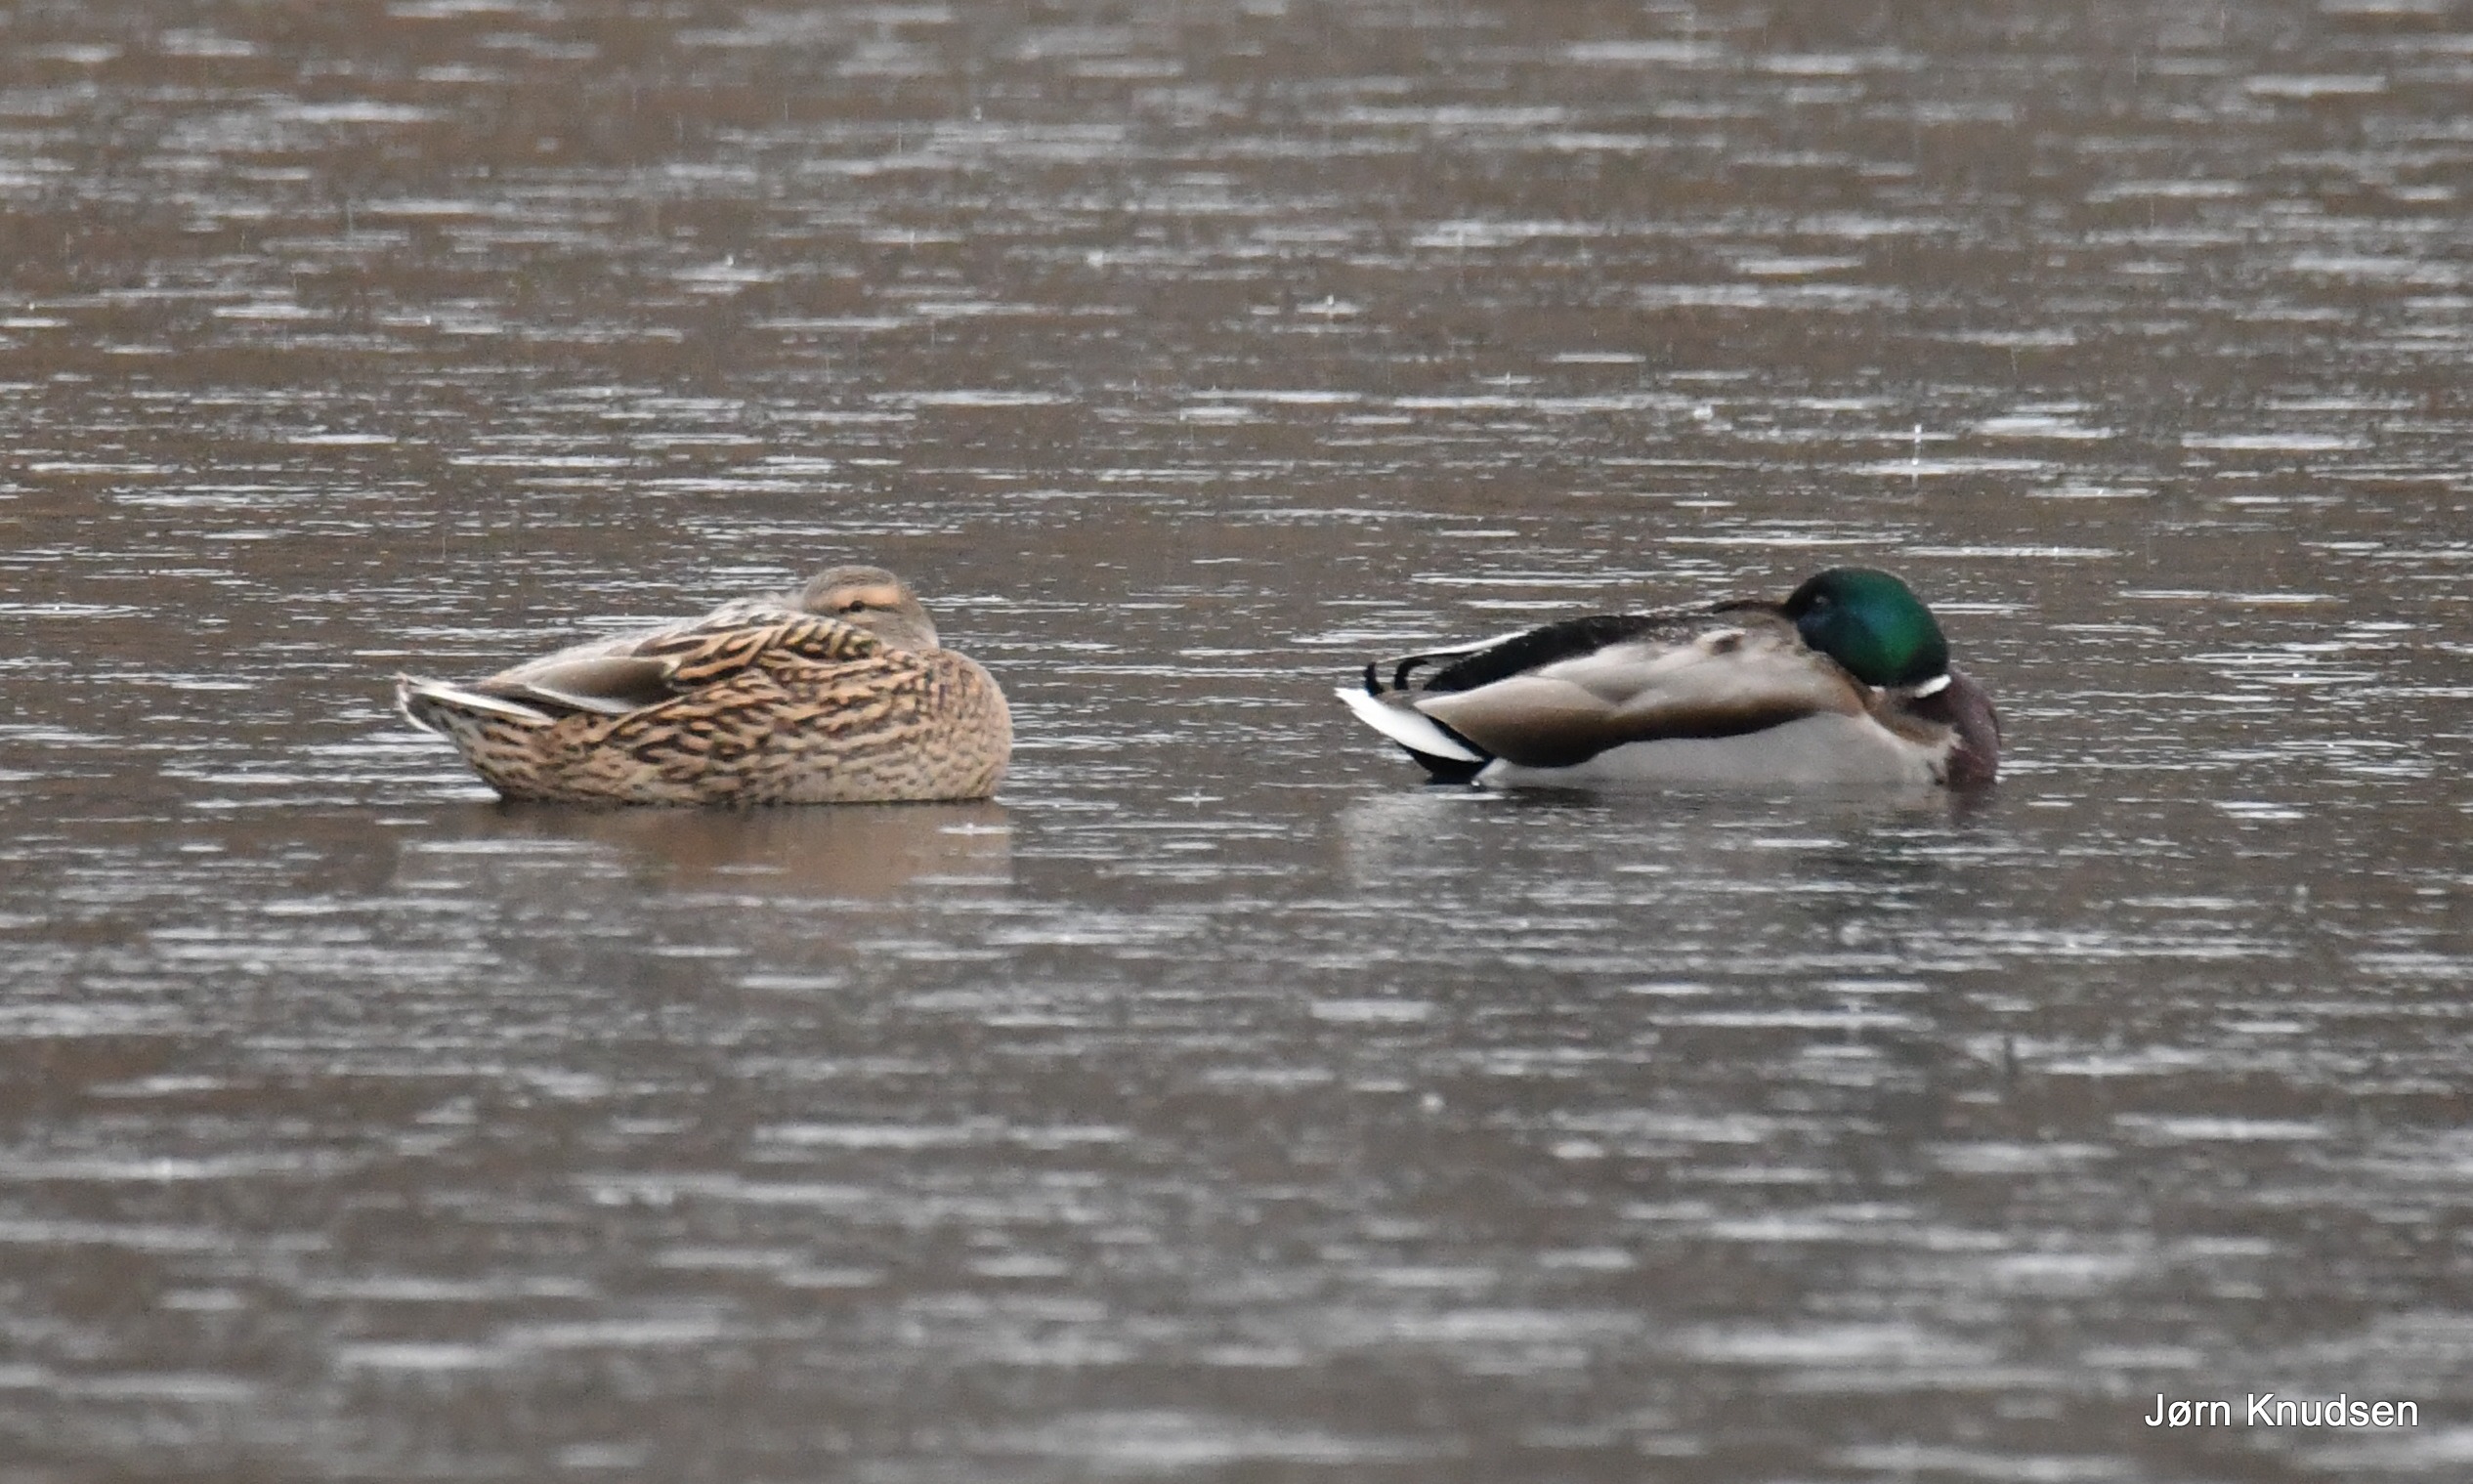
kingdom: Animalia
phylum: Chordata
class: Aves
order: Anseriformes
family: Anatidae
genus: Anas
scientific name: Anas platyrhynchos
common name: Gråand
